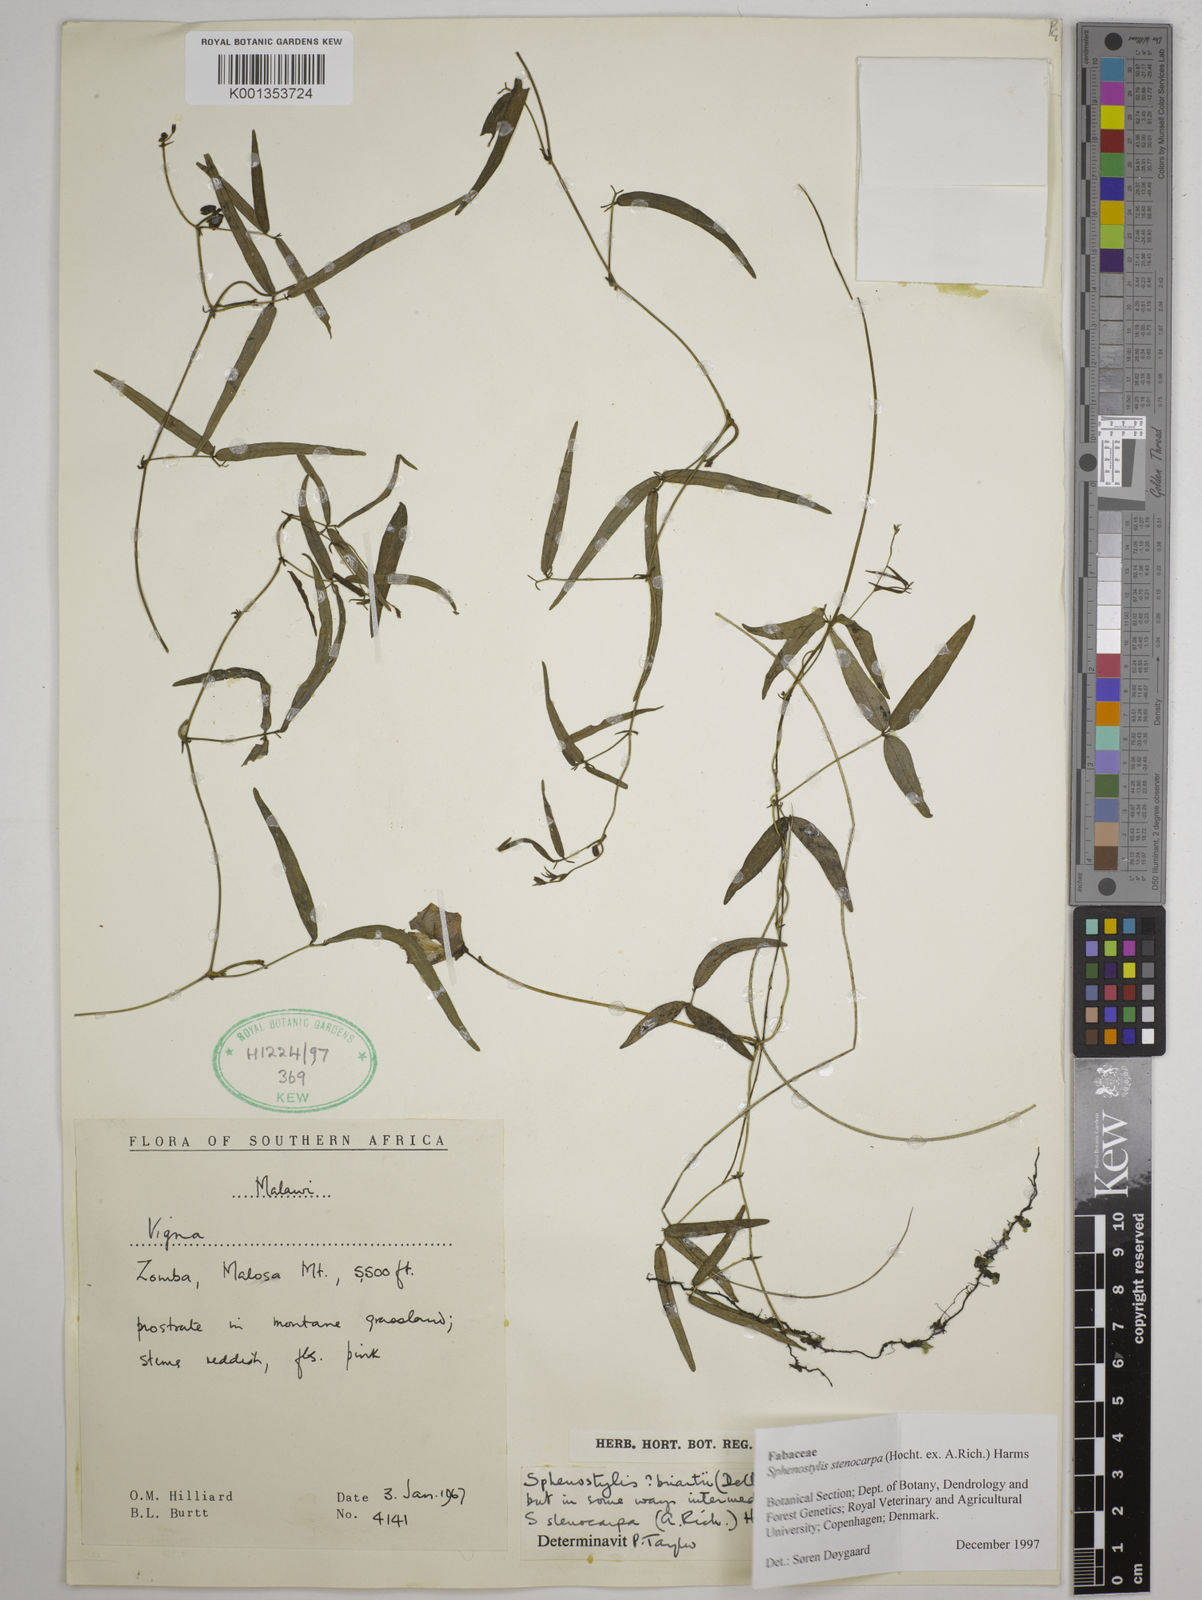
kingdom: Plantae
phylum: Tracheophyta
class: Magnoliopsida
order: Fabales
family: Fabaceae
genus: Sphenostylis
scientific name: Sphenostylis stenocarpa
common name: Yam-pea
